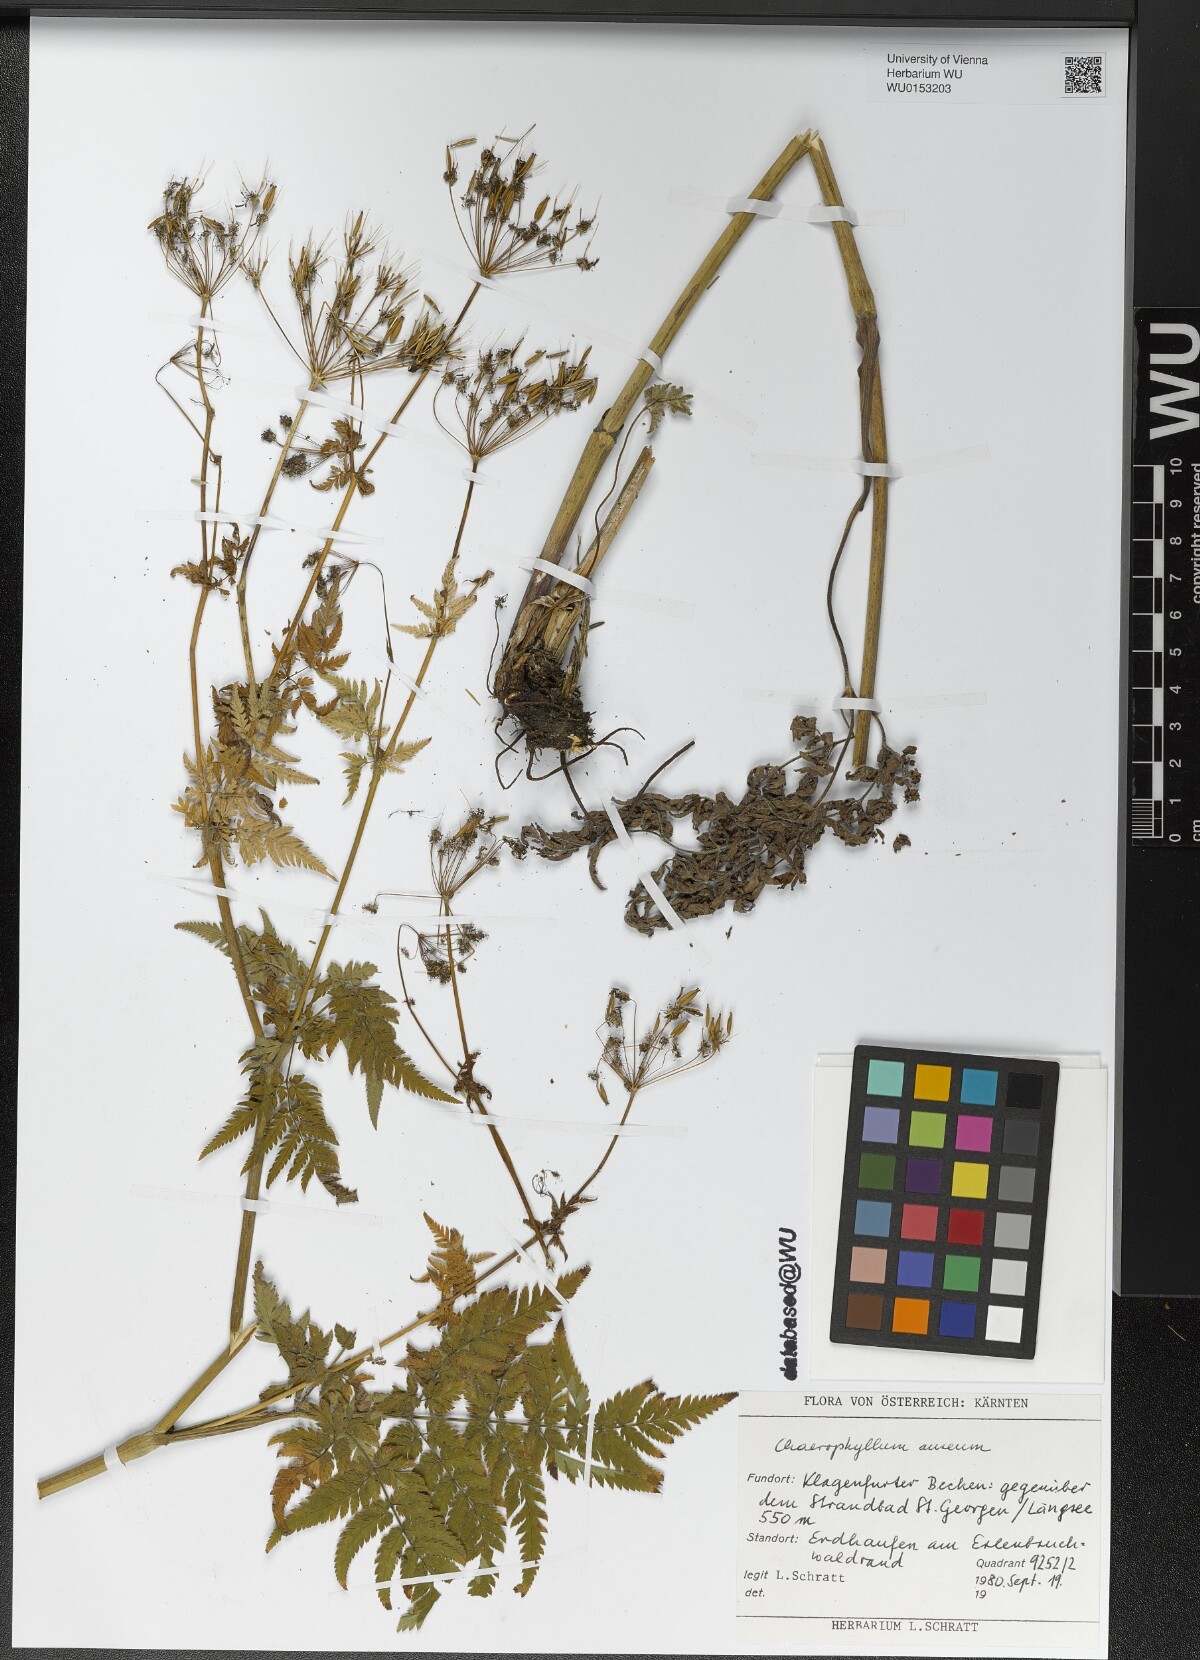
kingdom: Plantae
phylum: Tracheophyta
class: Magnoliopsida
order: Apiales
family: Apiaceae
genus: Chaerophyllum
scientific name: Chaerophyllum aureum
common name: Golden chervil
